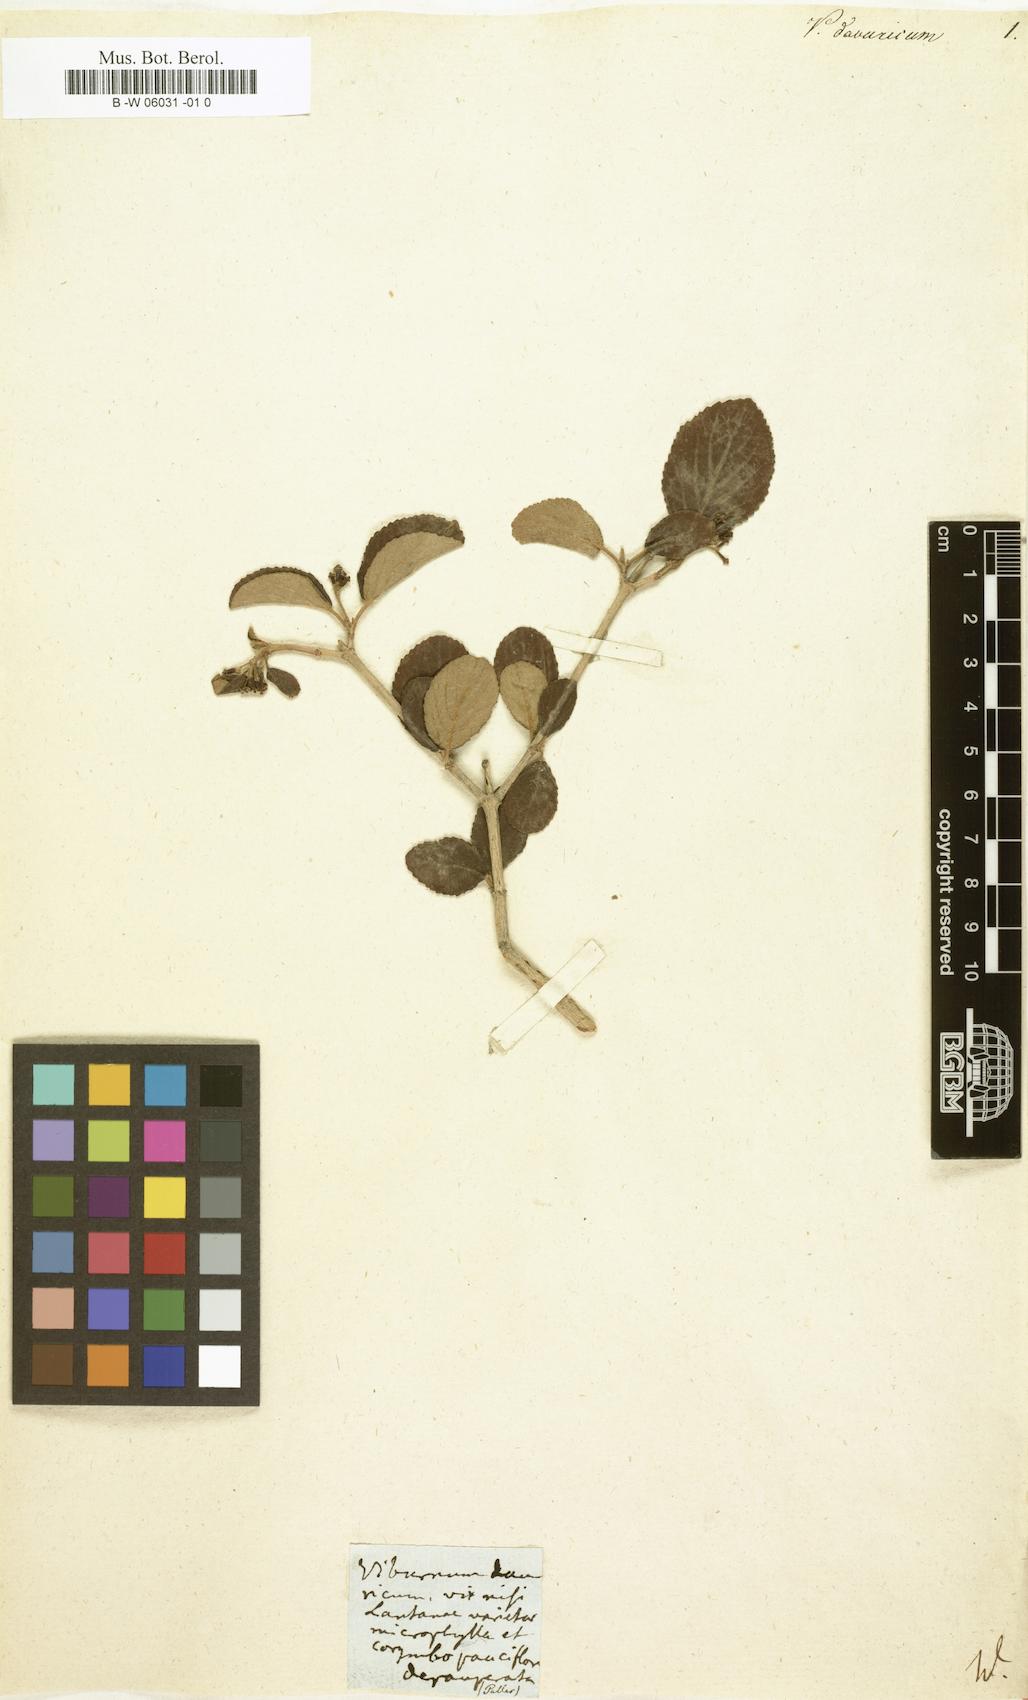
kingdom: Plantae
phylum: Tracheophyta
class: Magnoliopsida
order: Dipsacales
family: Viburnaceae
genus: Viburnum
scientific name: Viburnum
